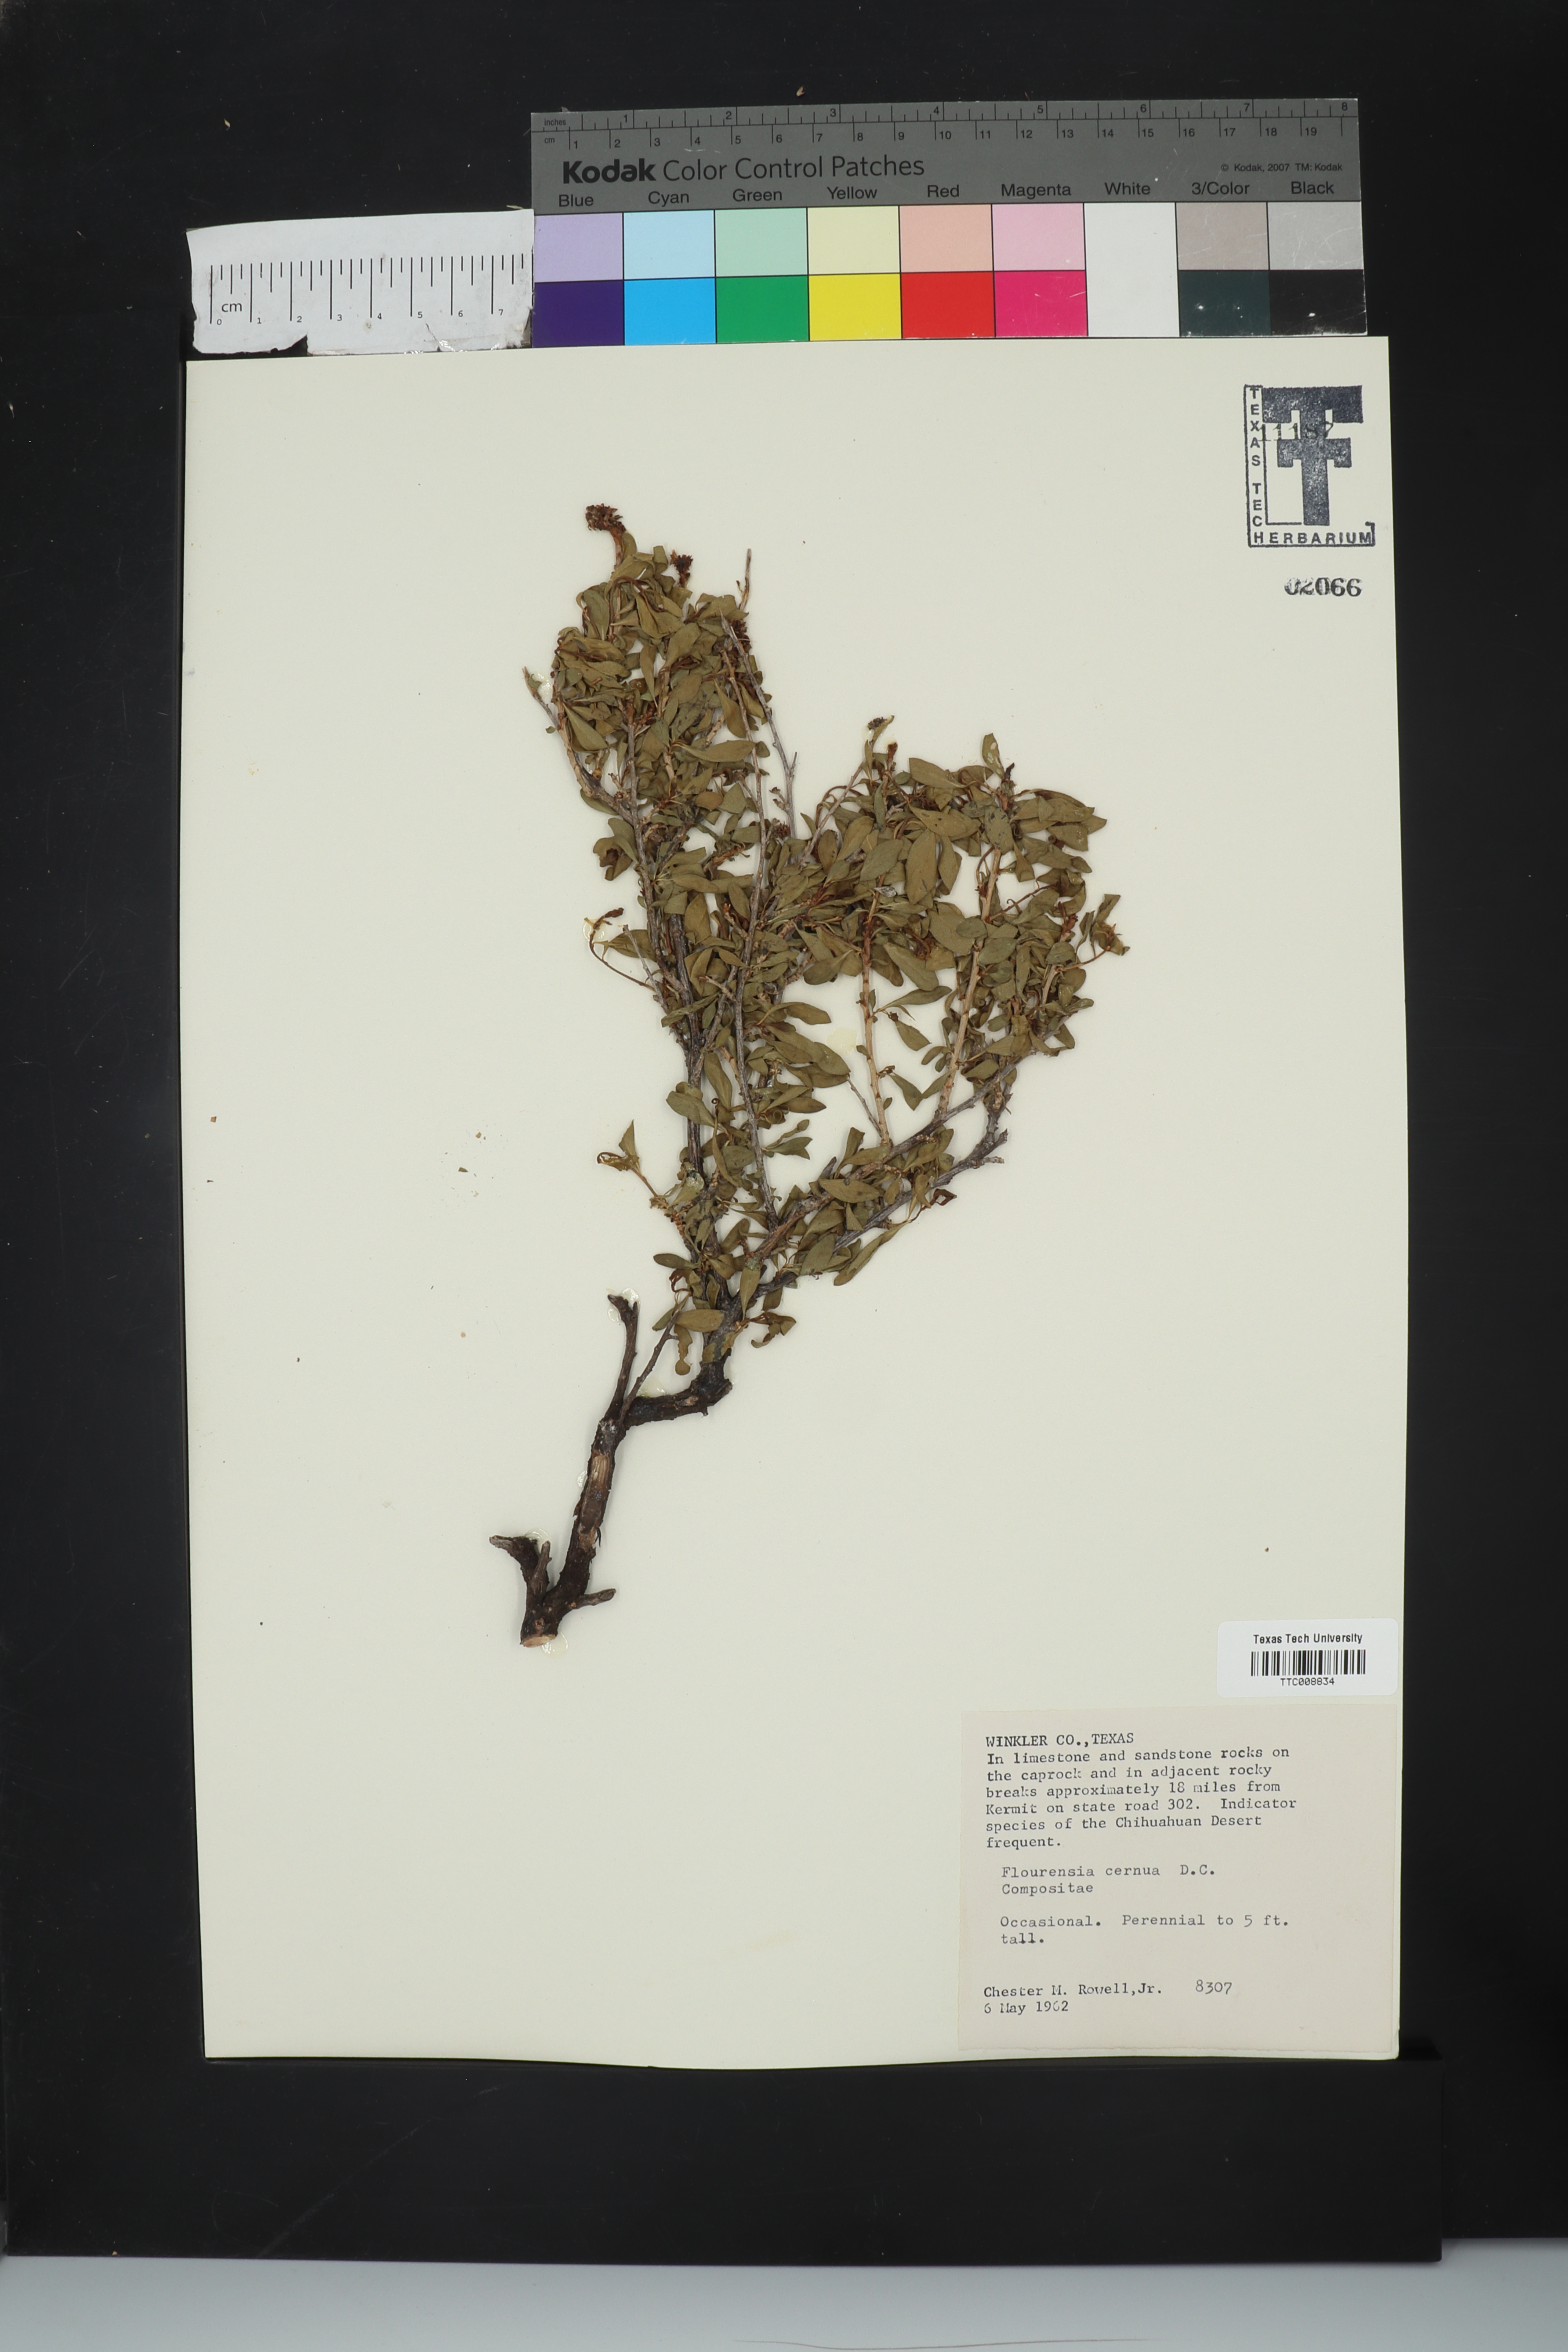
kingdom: Plantae
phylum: Tracheophyta
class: Magnoliopsida
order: Asterales
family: Asteraceae
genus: Flourensia
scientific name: Flourensia cernua
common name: Varnishbush
